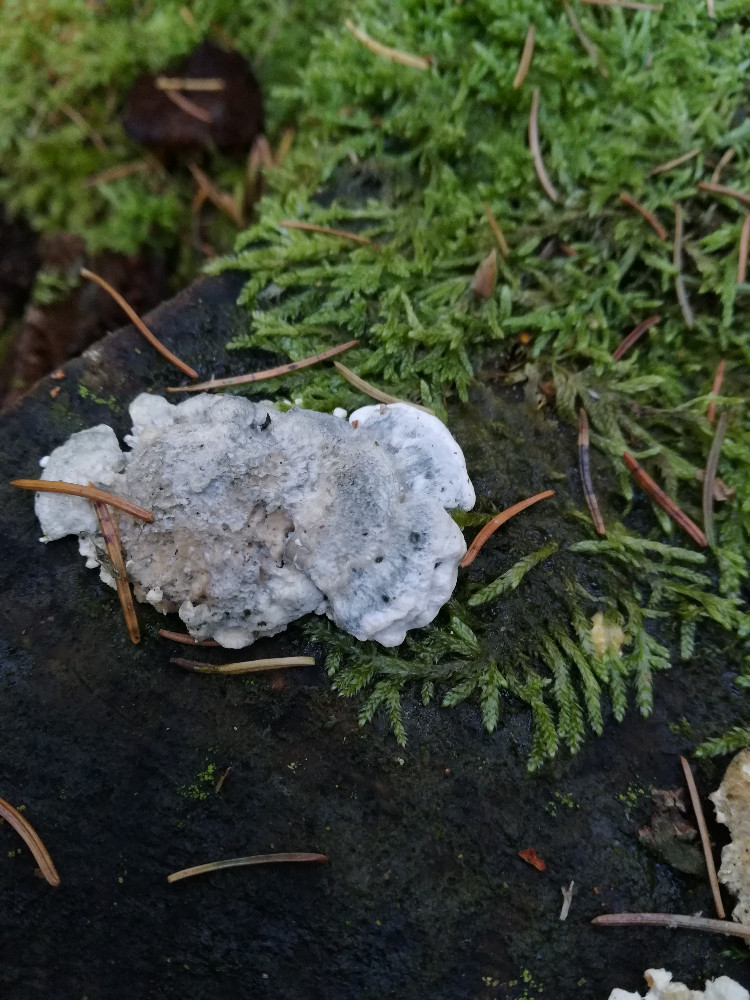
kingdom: Fungi
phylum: Basidiomycota
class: Agaricomycetes
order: Polyporales
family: Polyporaceae
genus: Cyanosporus
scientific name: Cyanosporus caesius
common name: blålig kødporesvamp
